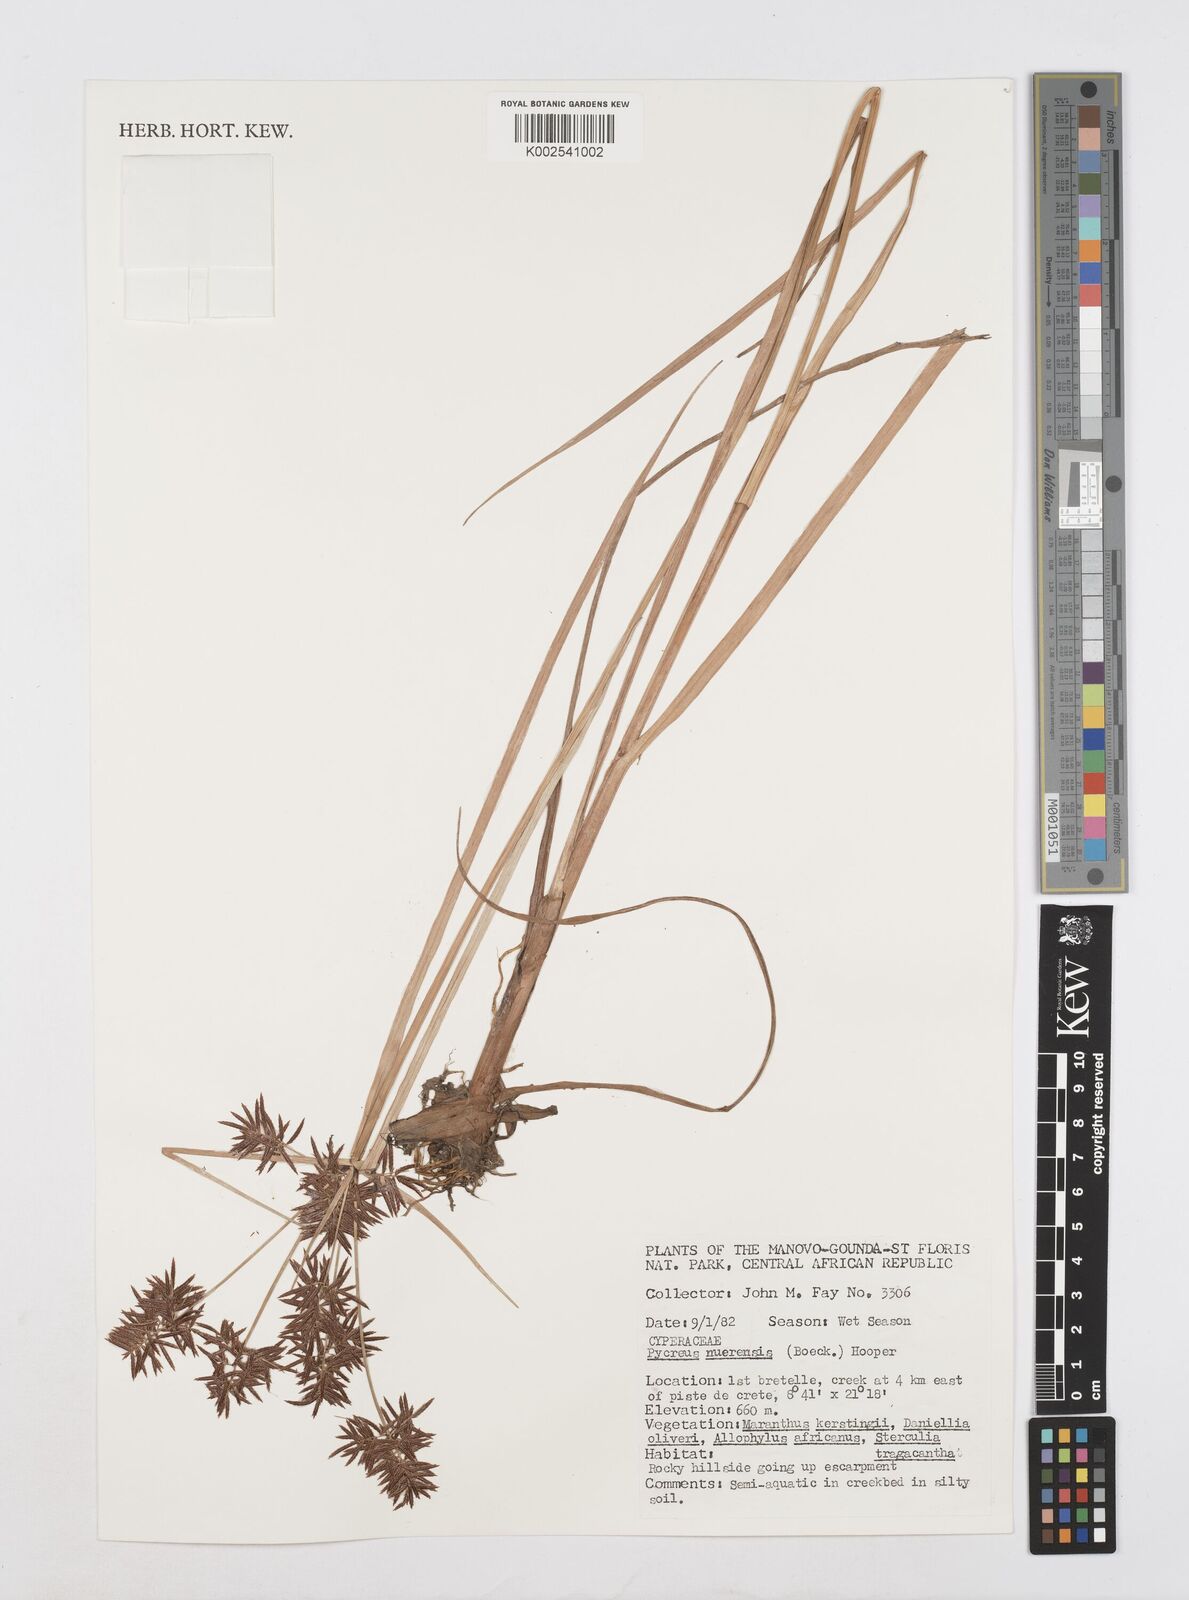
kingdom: Plantae
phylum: Tracheophyta
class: Liliopsida
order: Poales
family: Cyperaceae
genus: Cyperus
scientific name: Cyperus nuerensis
